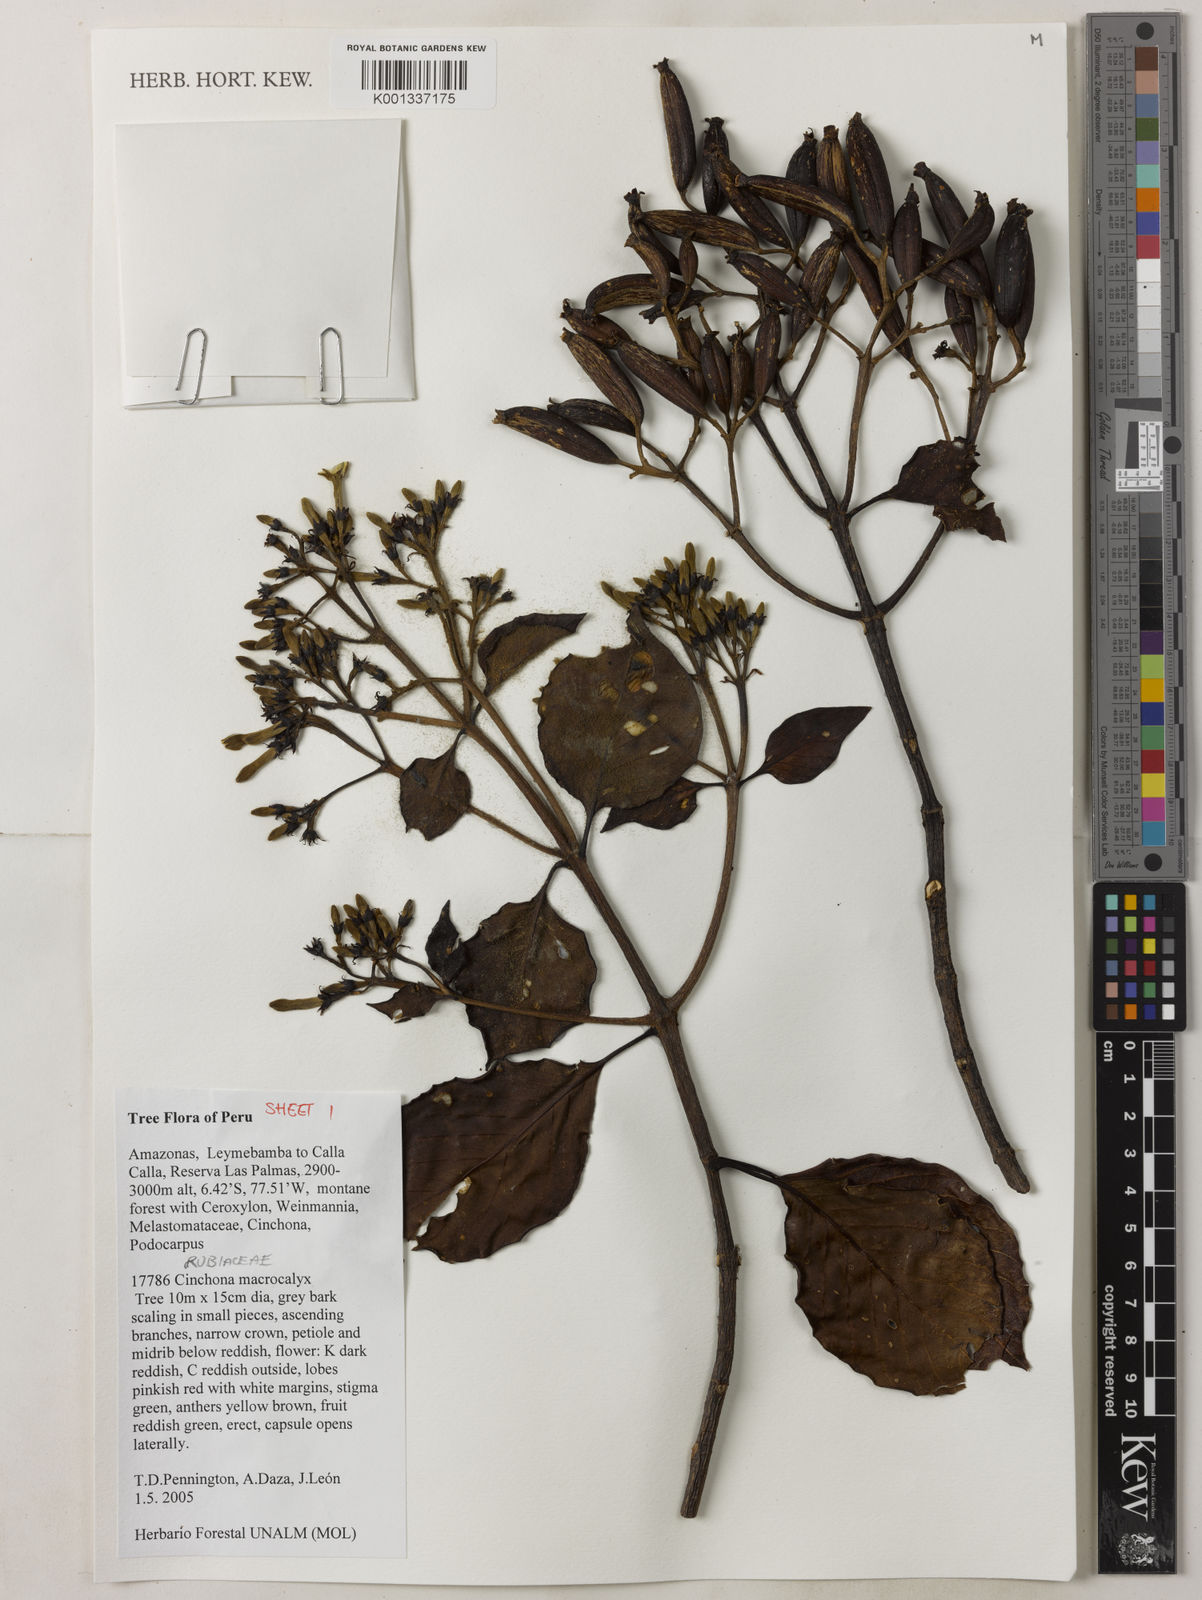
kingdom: Plantae
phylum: Tracheophyta
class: Magnoliopsida
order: Gentianales
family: Rubiaceae
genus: Cinchona
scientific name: Cinchona macrocalyx
